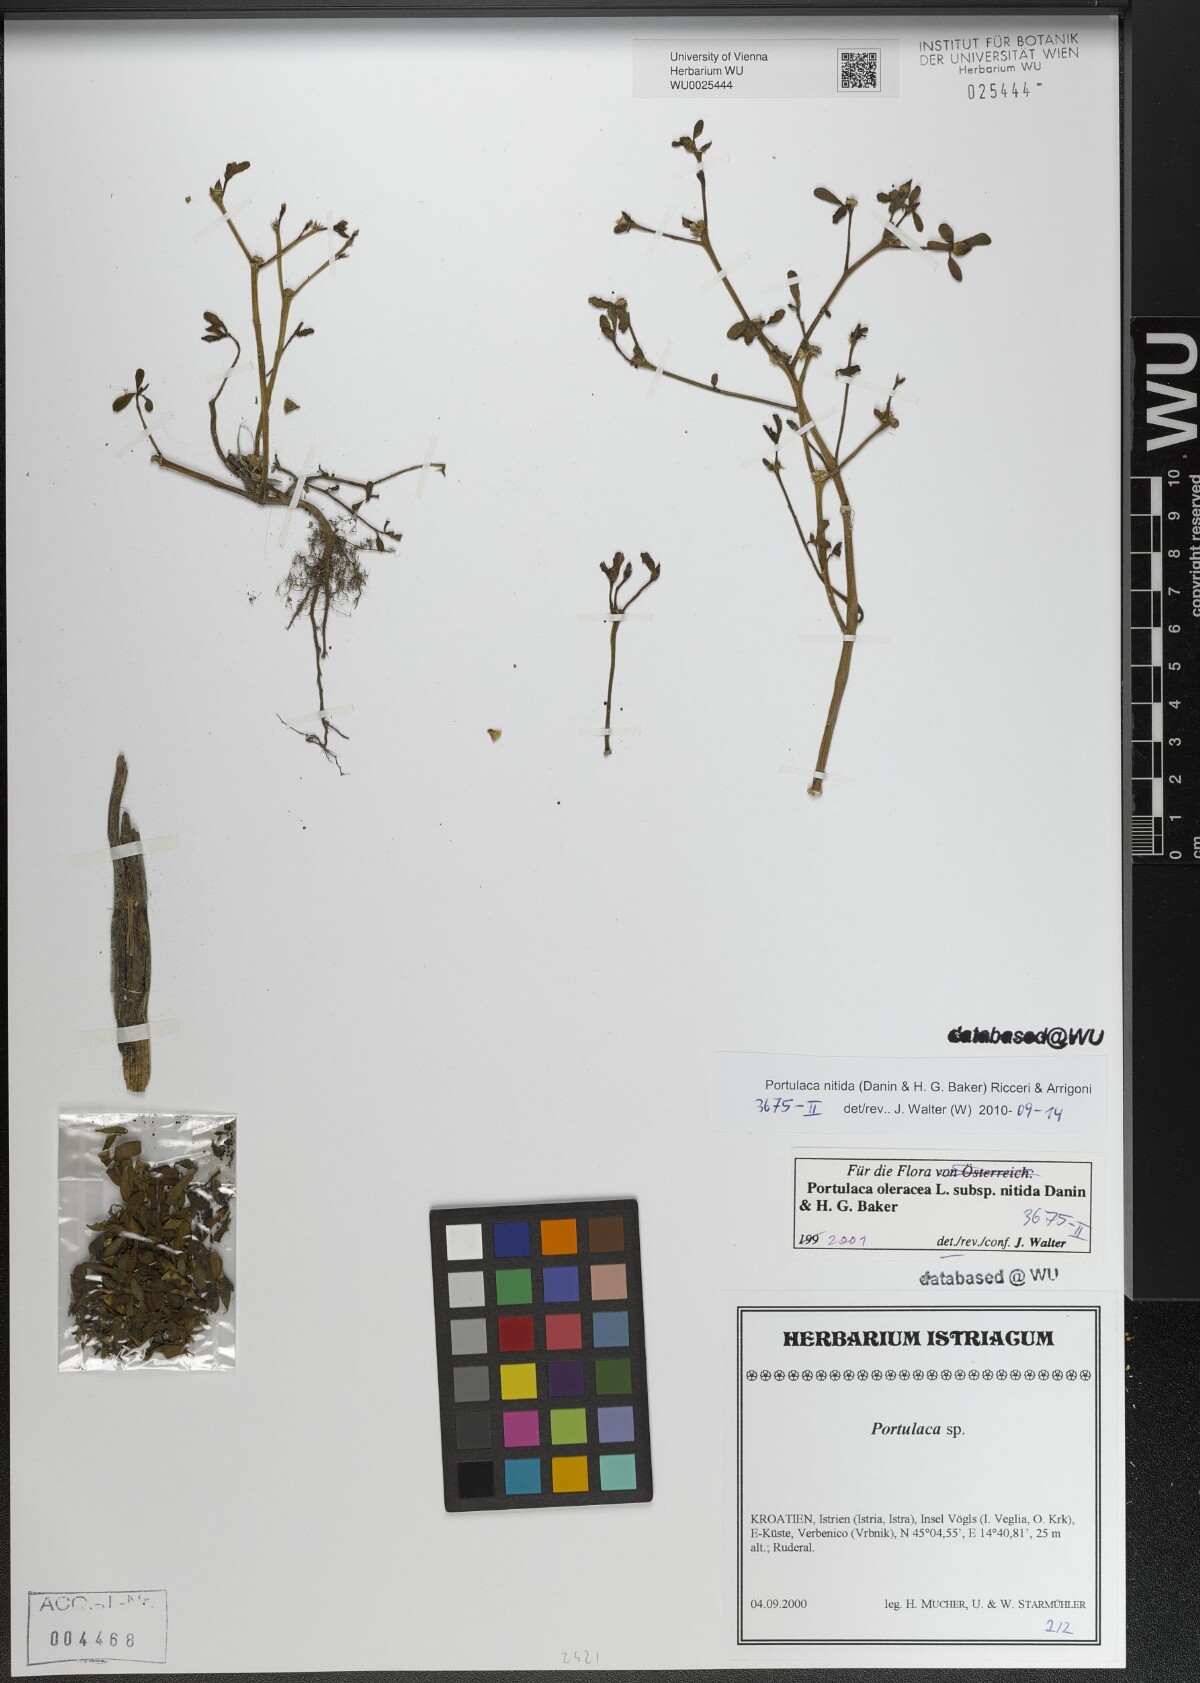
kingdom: Plantae
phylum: Tracheophyta
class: Magnoliopsida
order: Caryophyllales
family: Portulacaceae
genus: Portulaca
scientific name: Portulaca nitida
